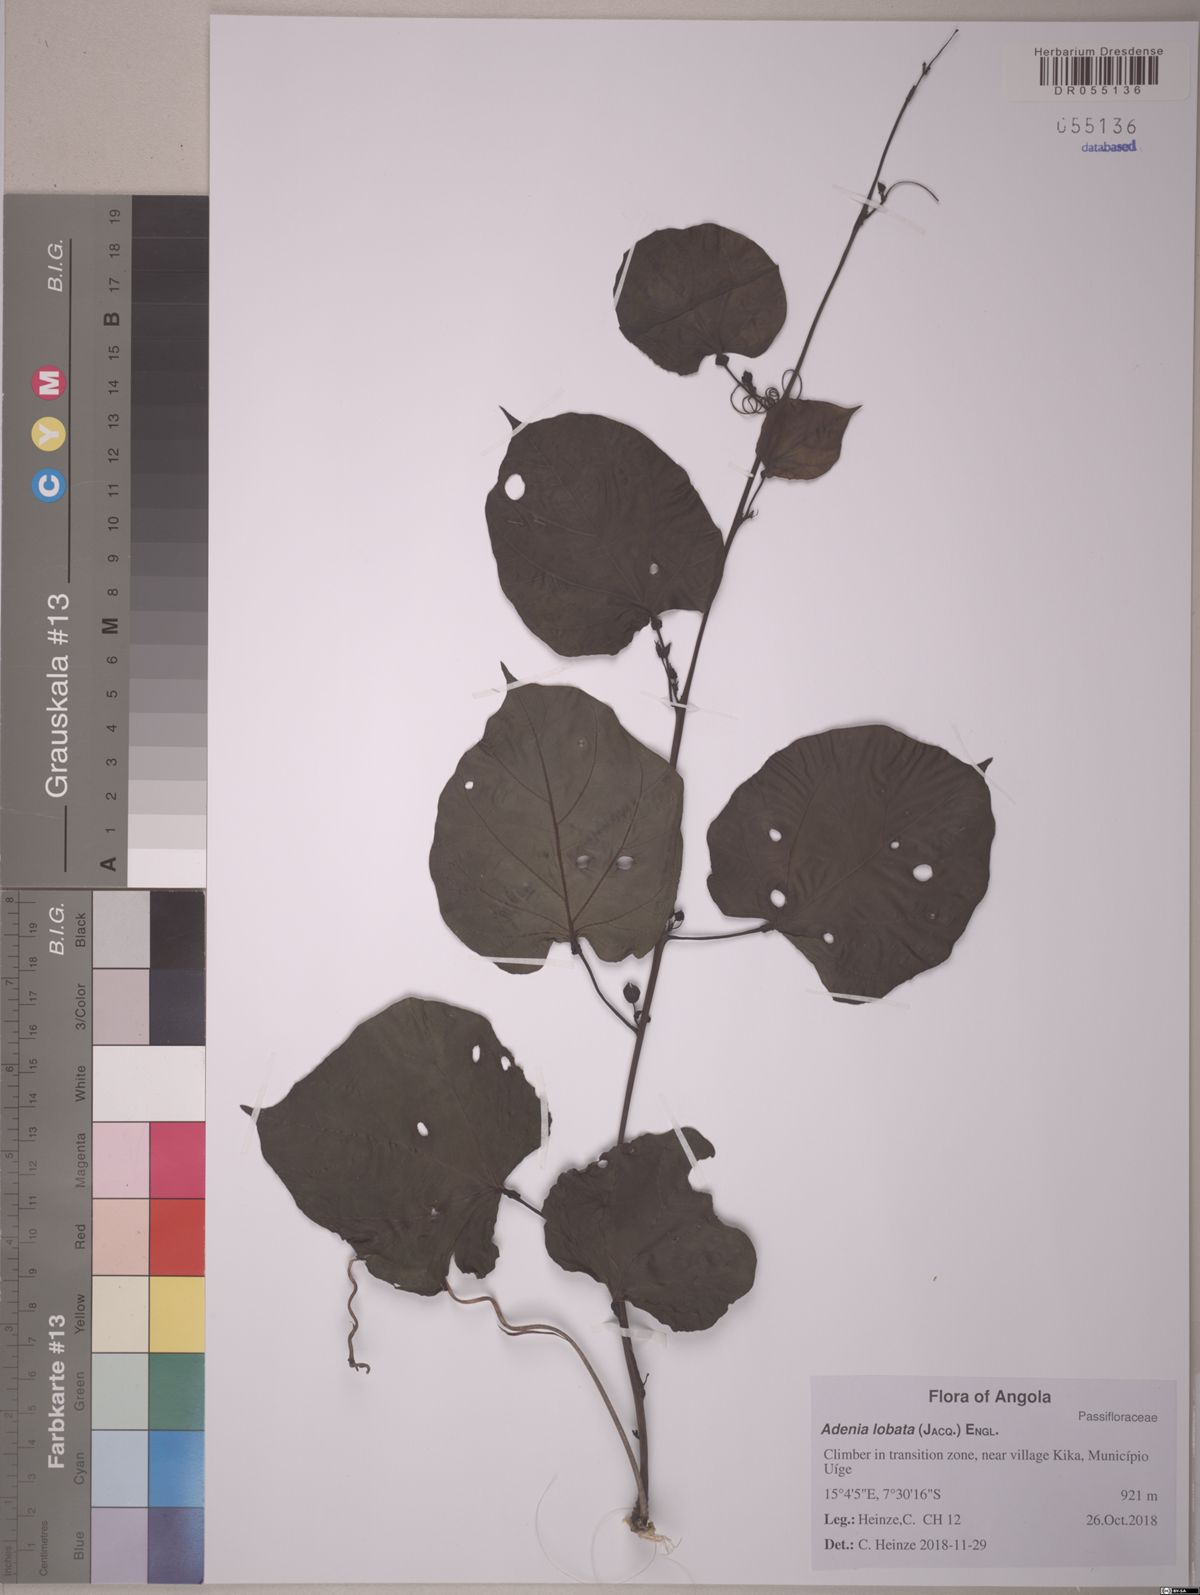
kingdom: Plantae
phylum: Tracheophyta
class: Magnoliopsida
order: Malpighiales
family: Passifloraceae
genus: Adenia
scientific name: Adenia lobata
